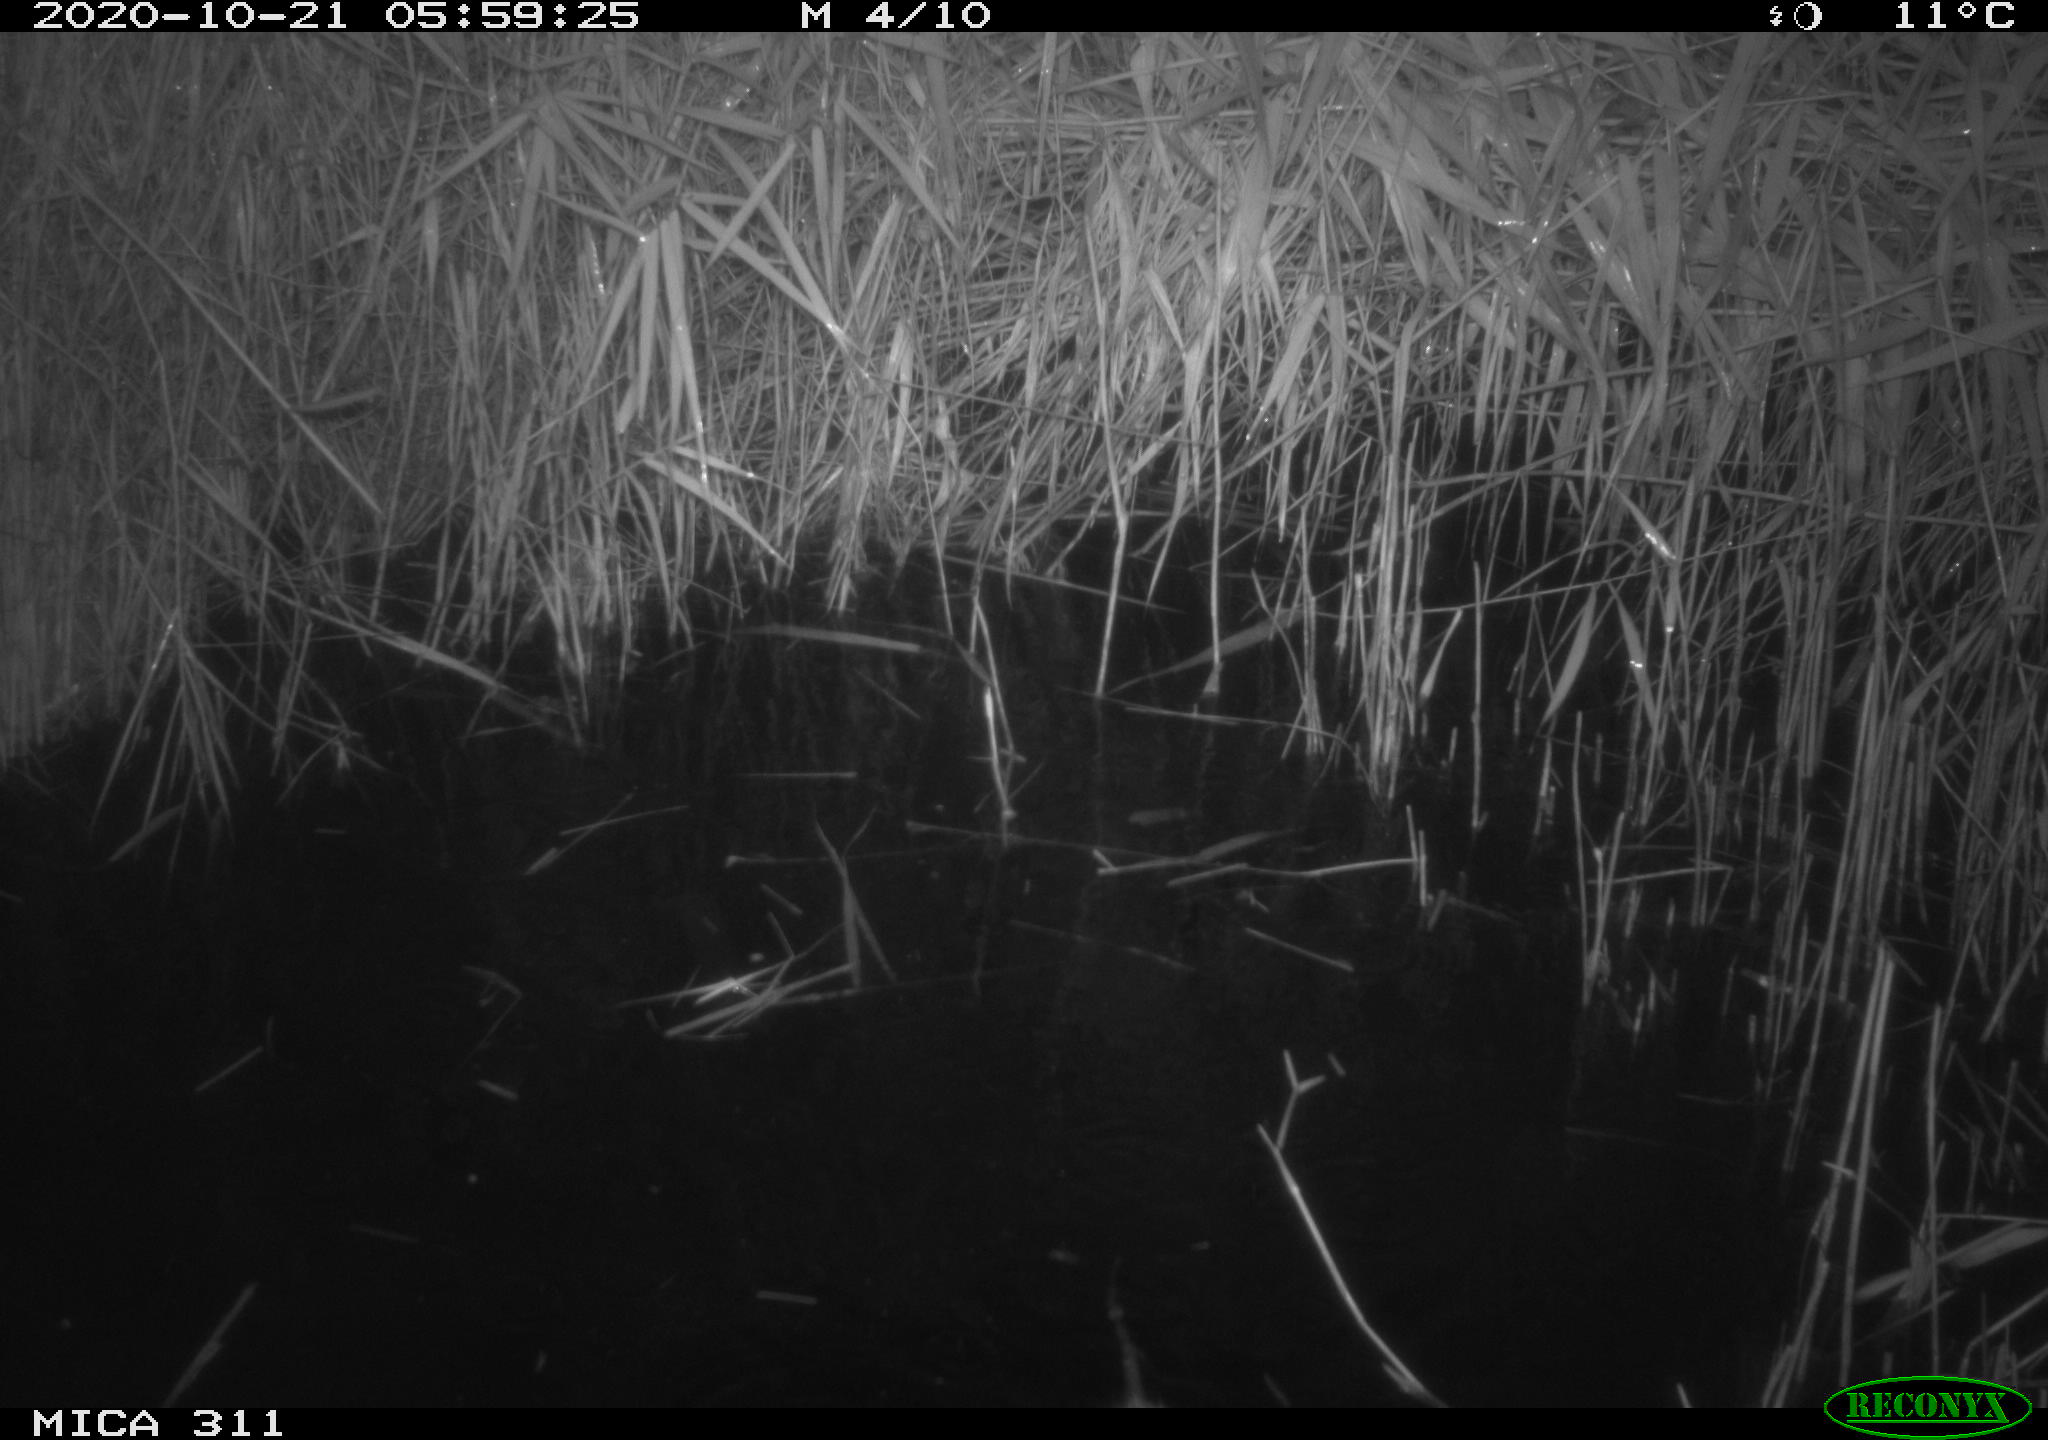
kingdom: Animalia
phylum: Chordata
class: Mammalia
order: Rodentia
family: Muridae
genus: Rattus
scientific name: Rattus norvegicus
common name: Brown rat
